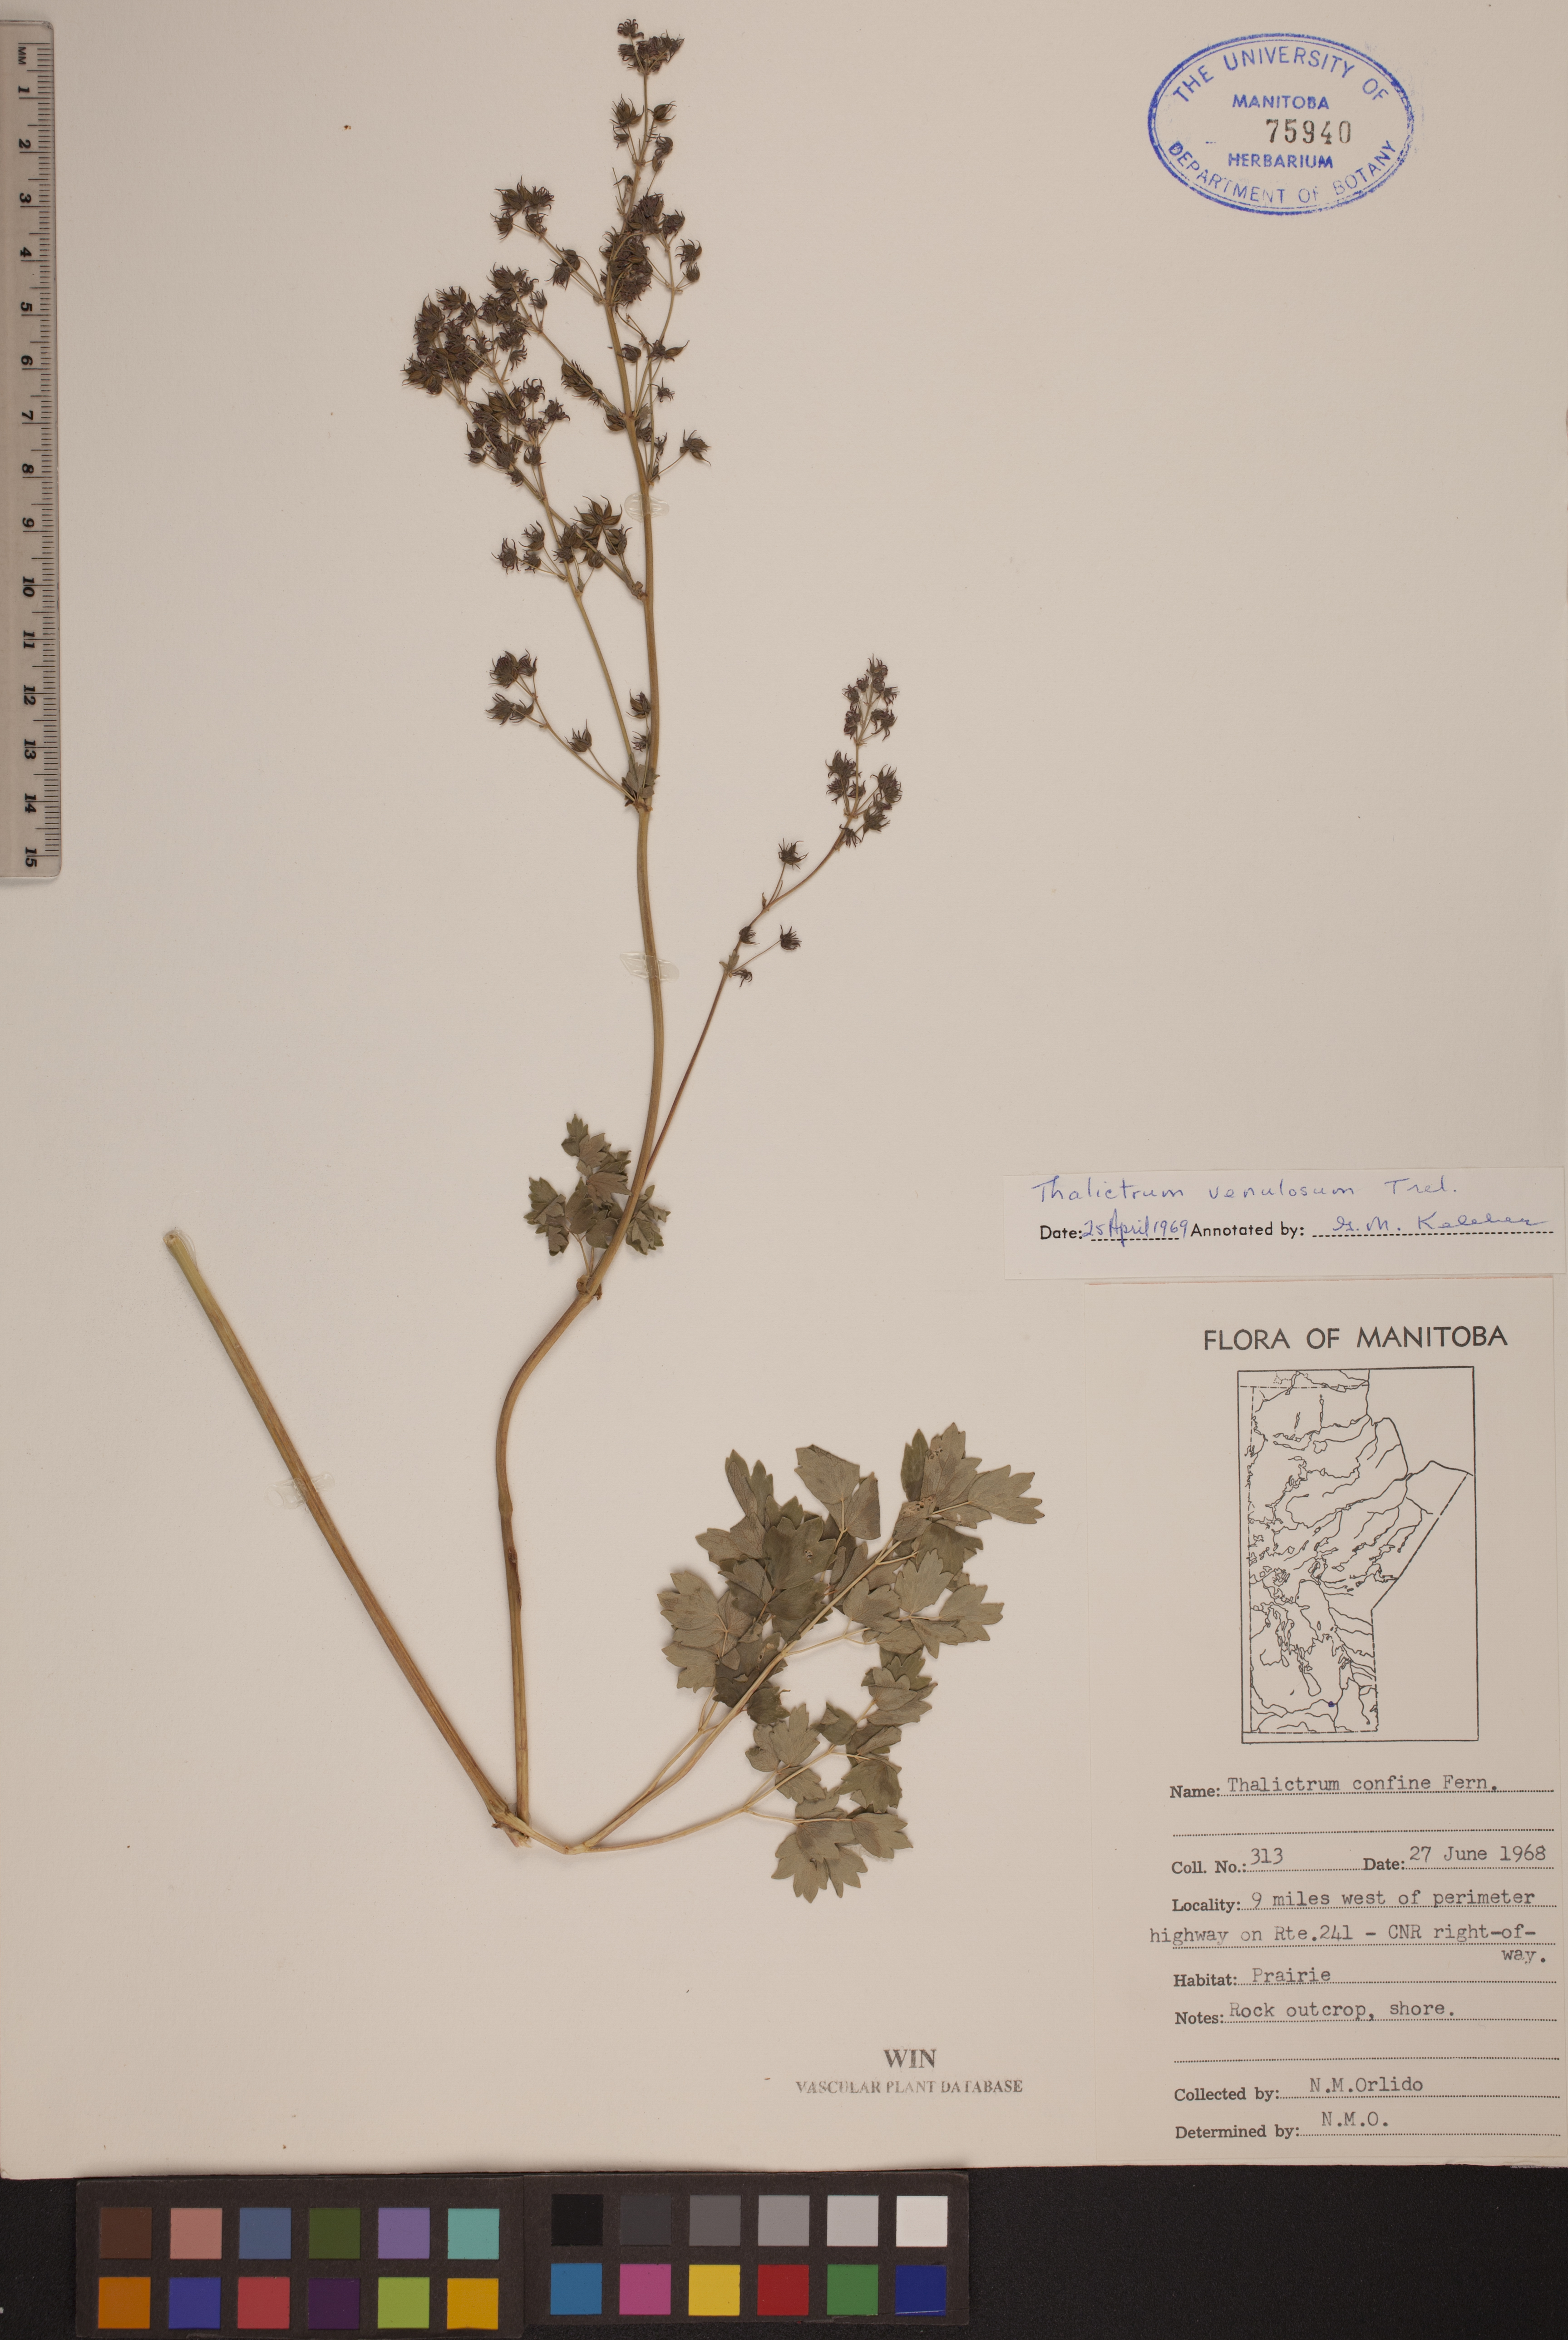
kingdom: Plantae
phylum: Tracheophyta
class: Magnoliopsida
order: Ranunculales
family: Ranunculaceae
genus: Thalictrum
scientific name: Thalictrum venulosum
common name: Early meadow-rue
